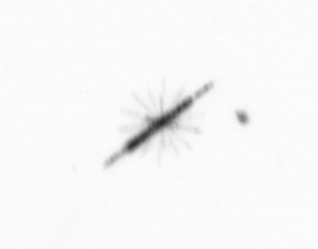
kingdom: Chromista
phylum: Ochrophyta
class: Bacillariophyceae
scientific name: Bacillariophyceae
